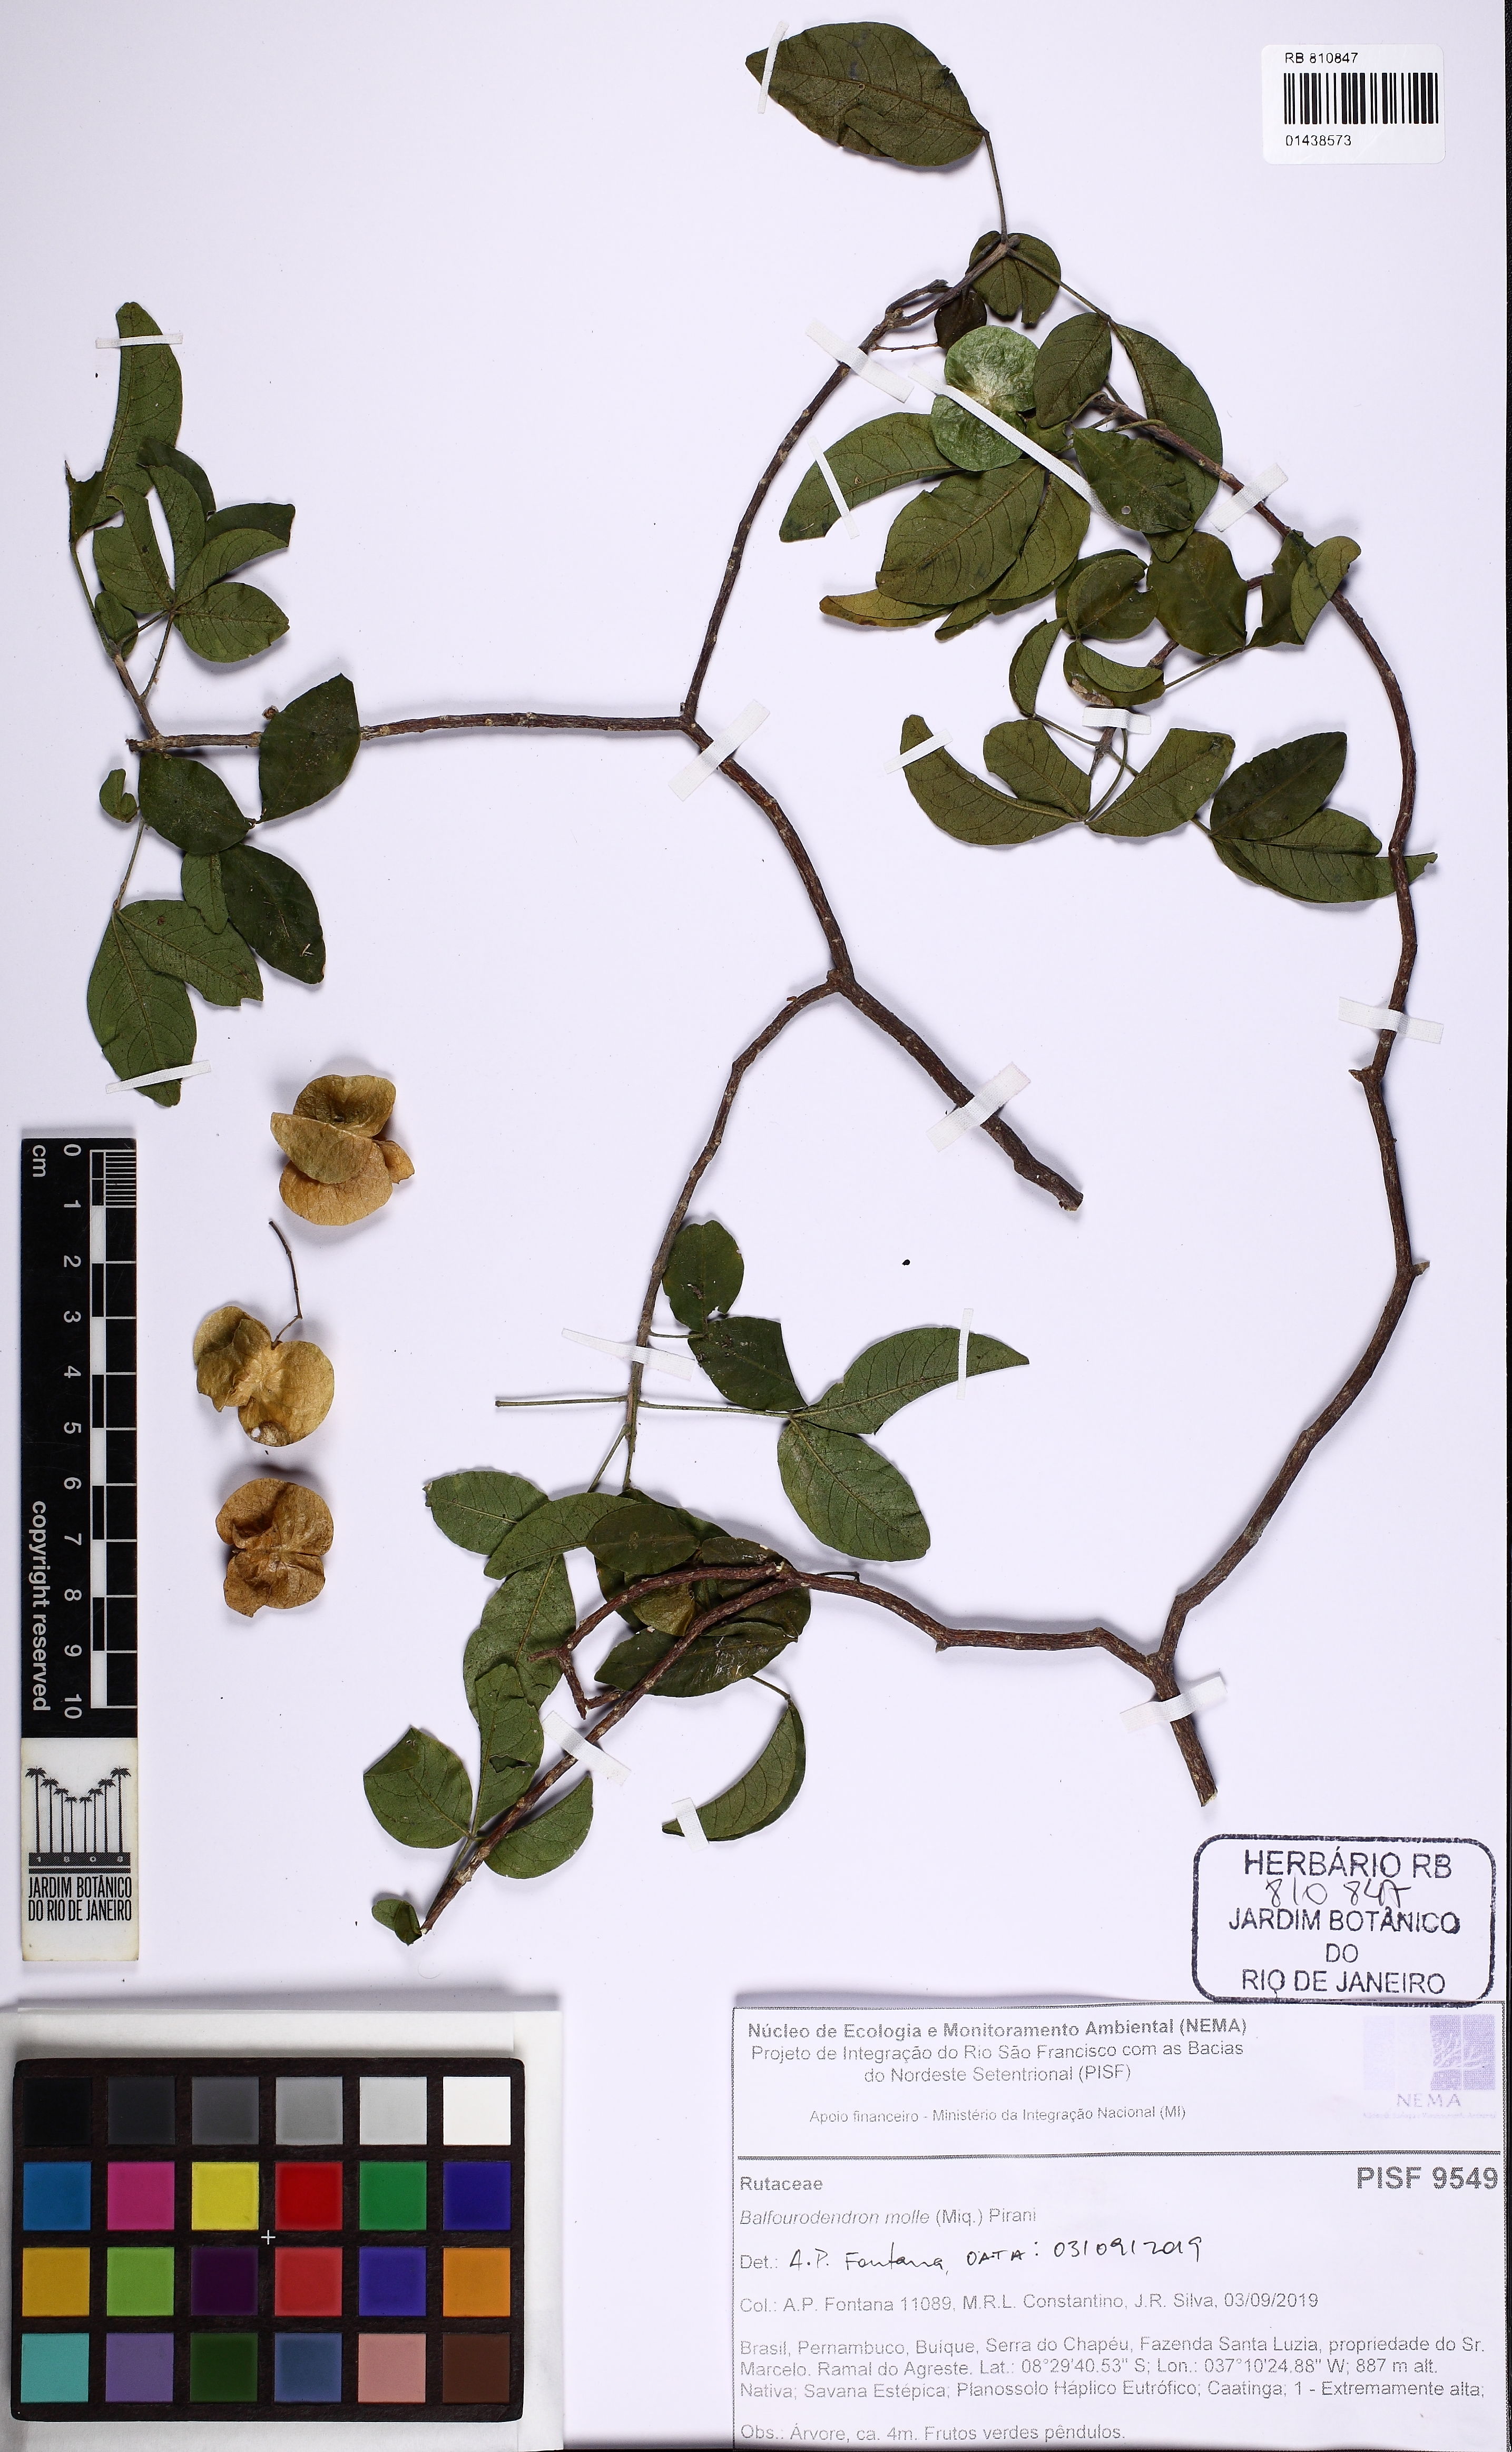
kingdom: Plantae
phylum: Tracheophyta
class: Magnoliopsida
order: Sapindales
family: Rutaceae
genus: Balfourodendron
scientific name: Balfourodendron molle
